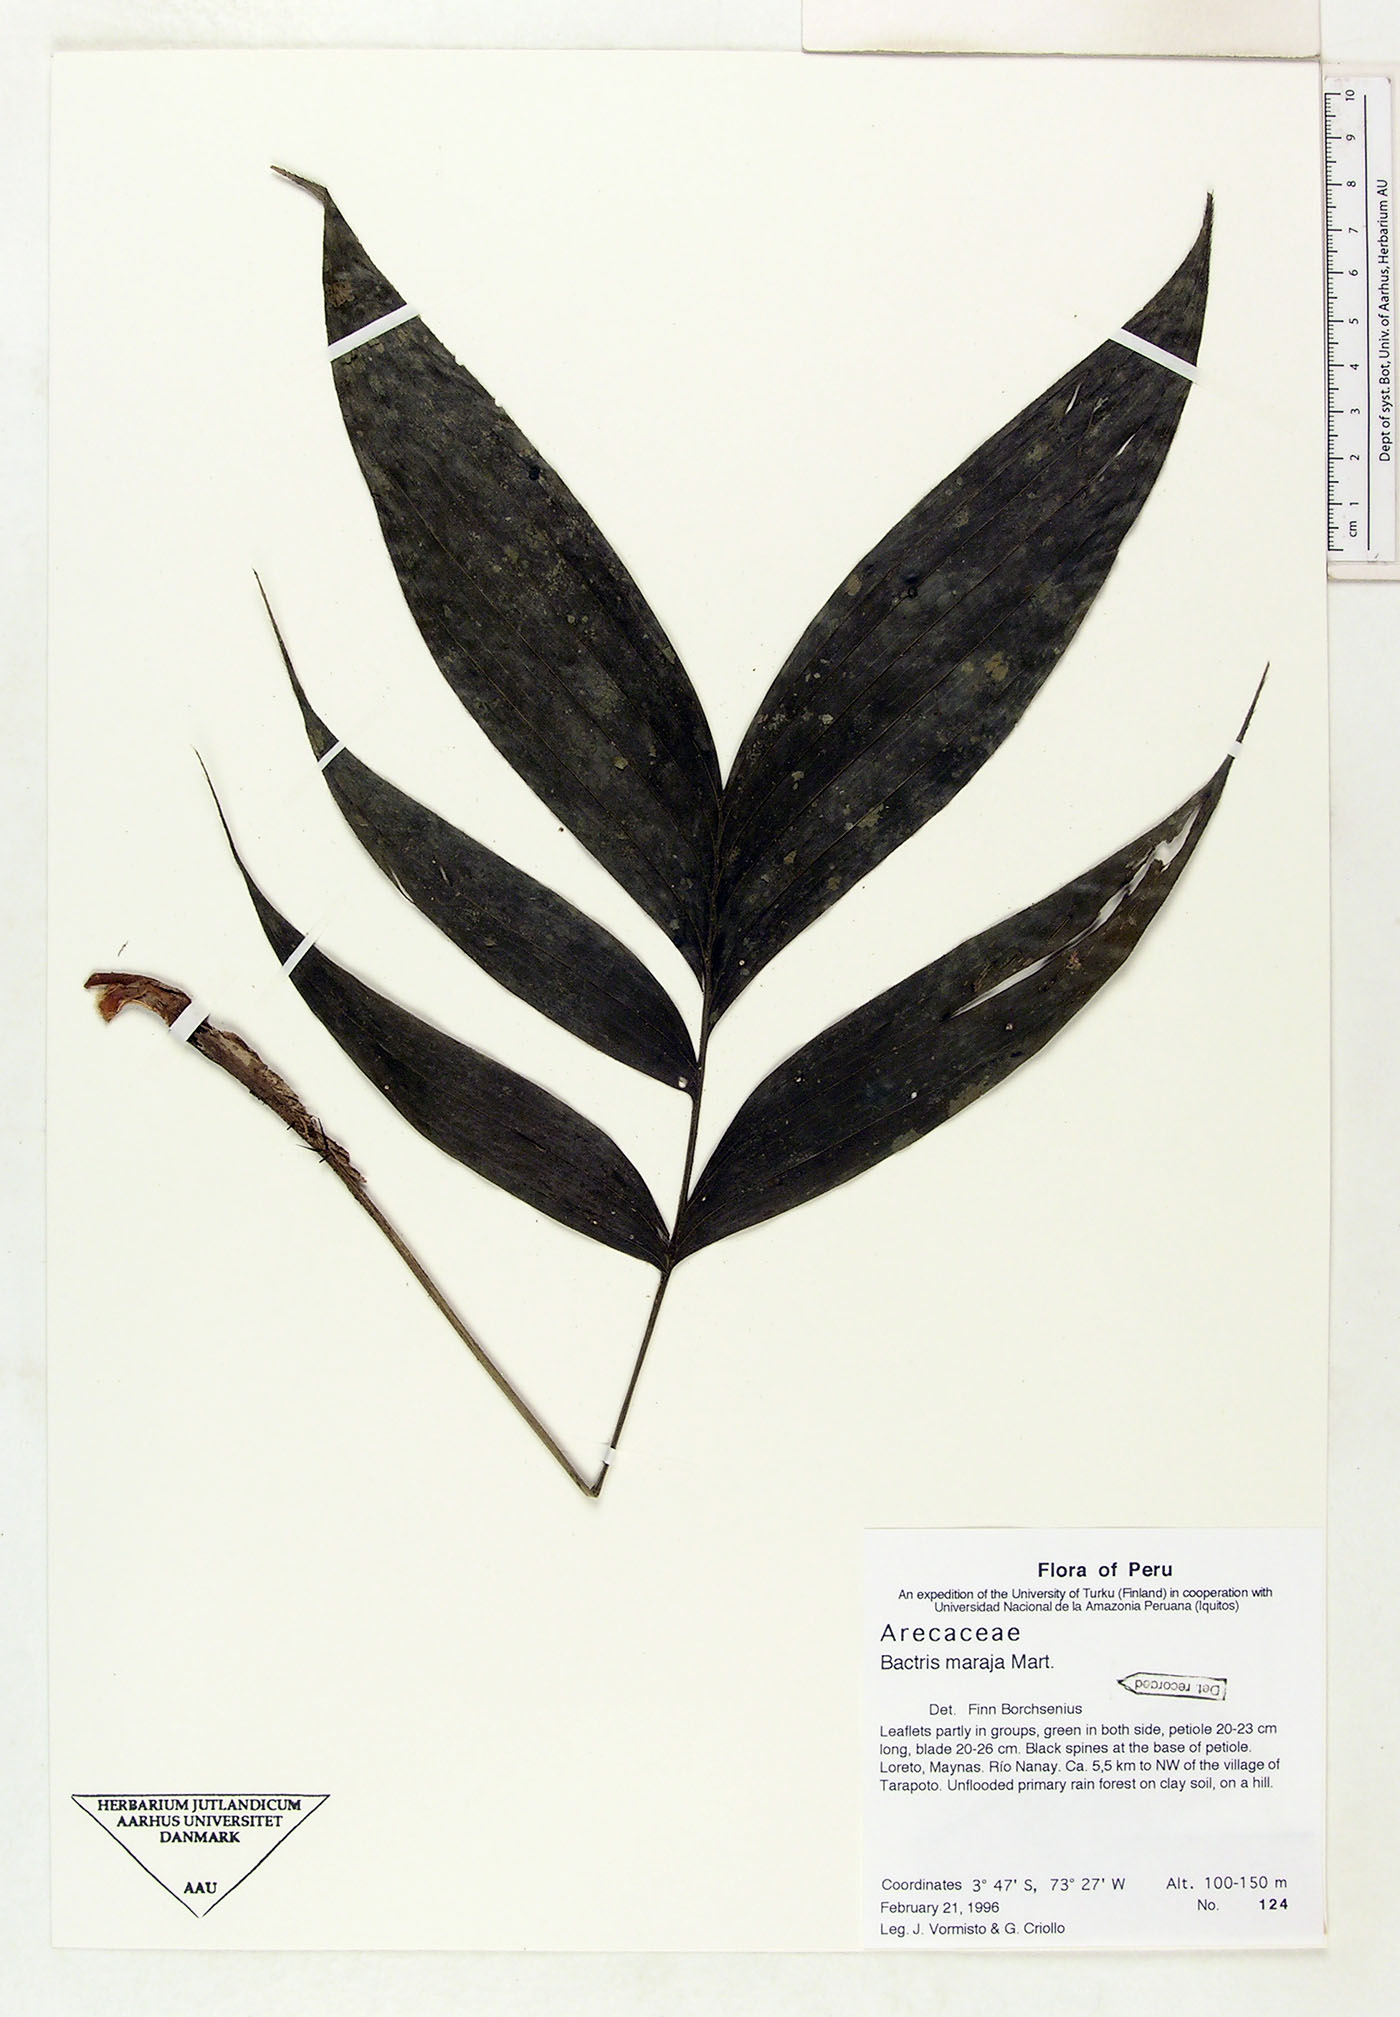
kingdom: Plantae
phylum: Tracheophyta
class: Liliopsida
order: Arecales
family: Arecaceae
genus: Bactris
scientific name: Bactris maraja
